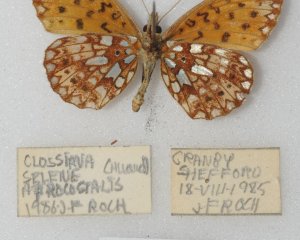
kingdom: Animalia
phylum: Arthropoda
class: Insecta
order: Lepidoptera
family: Nymphalidae
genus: Boloria
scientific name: Boloria selene
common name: Silver-bordered Fritillary
